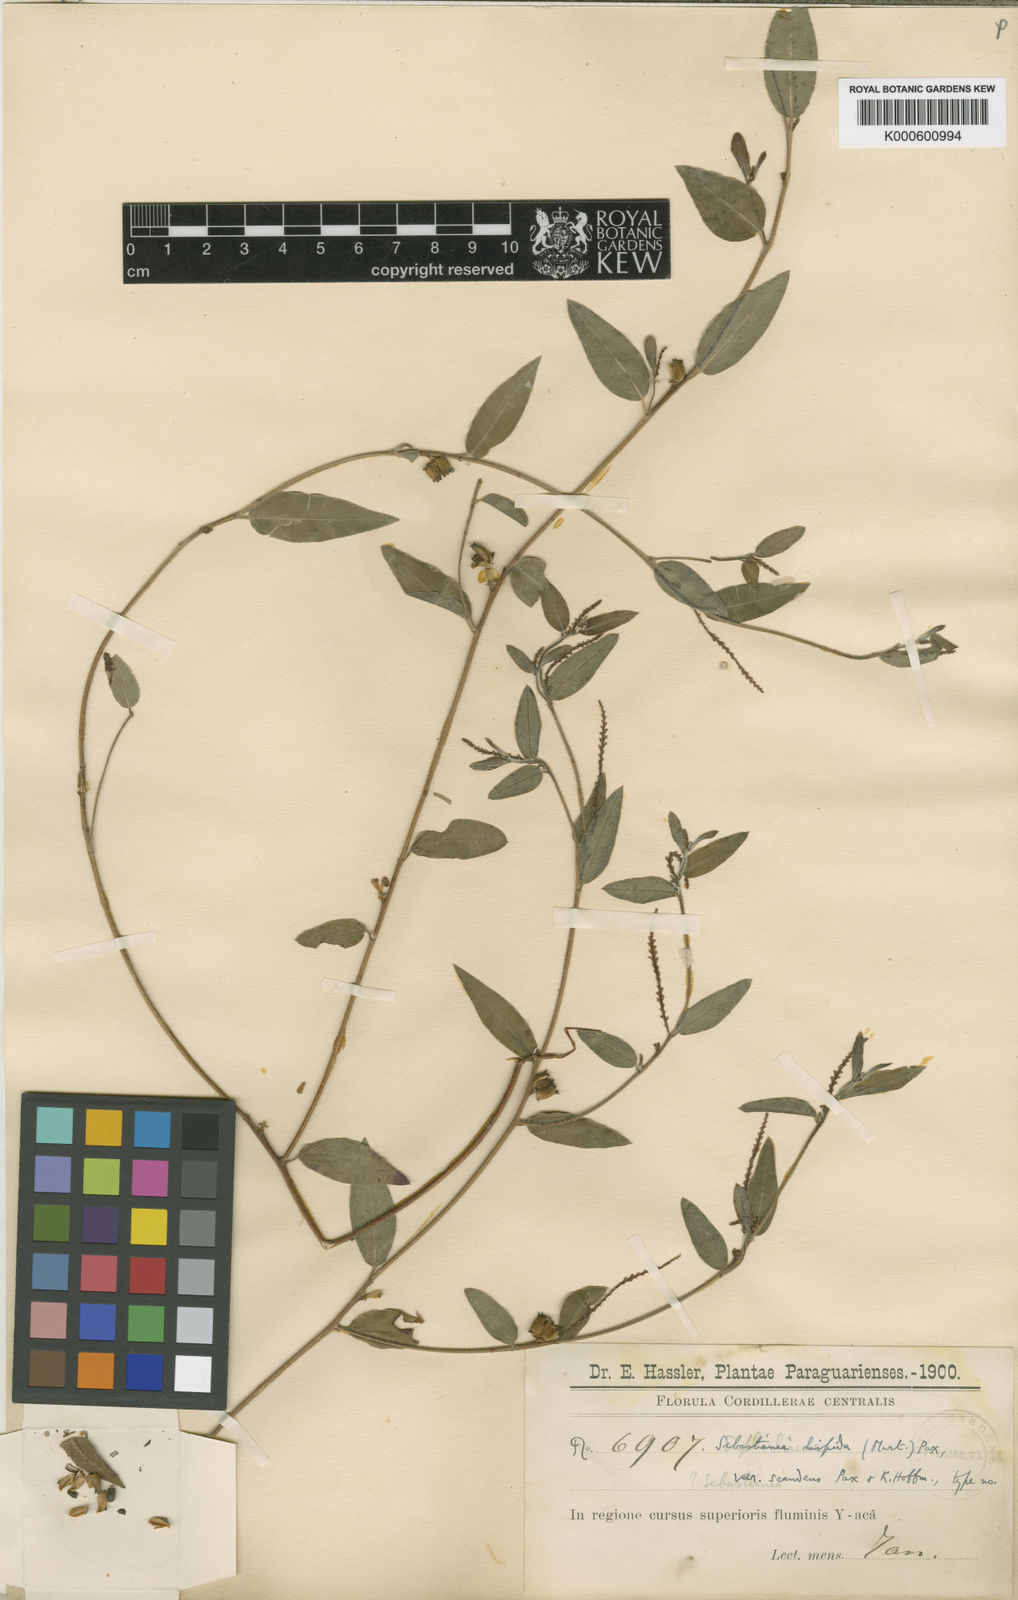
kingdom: Plantae
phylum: Tracheophyta
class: Magnoliopsida
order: Malpighiales
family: Euphorbiaceae
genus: Microstachys
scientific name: Microstachys hispida
